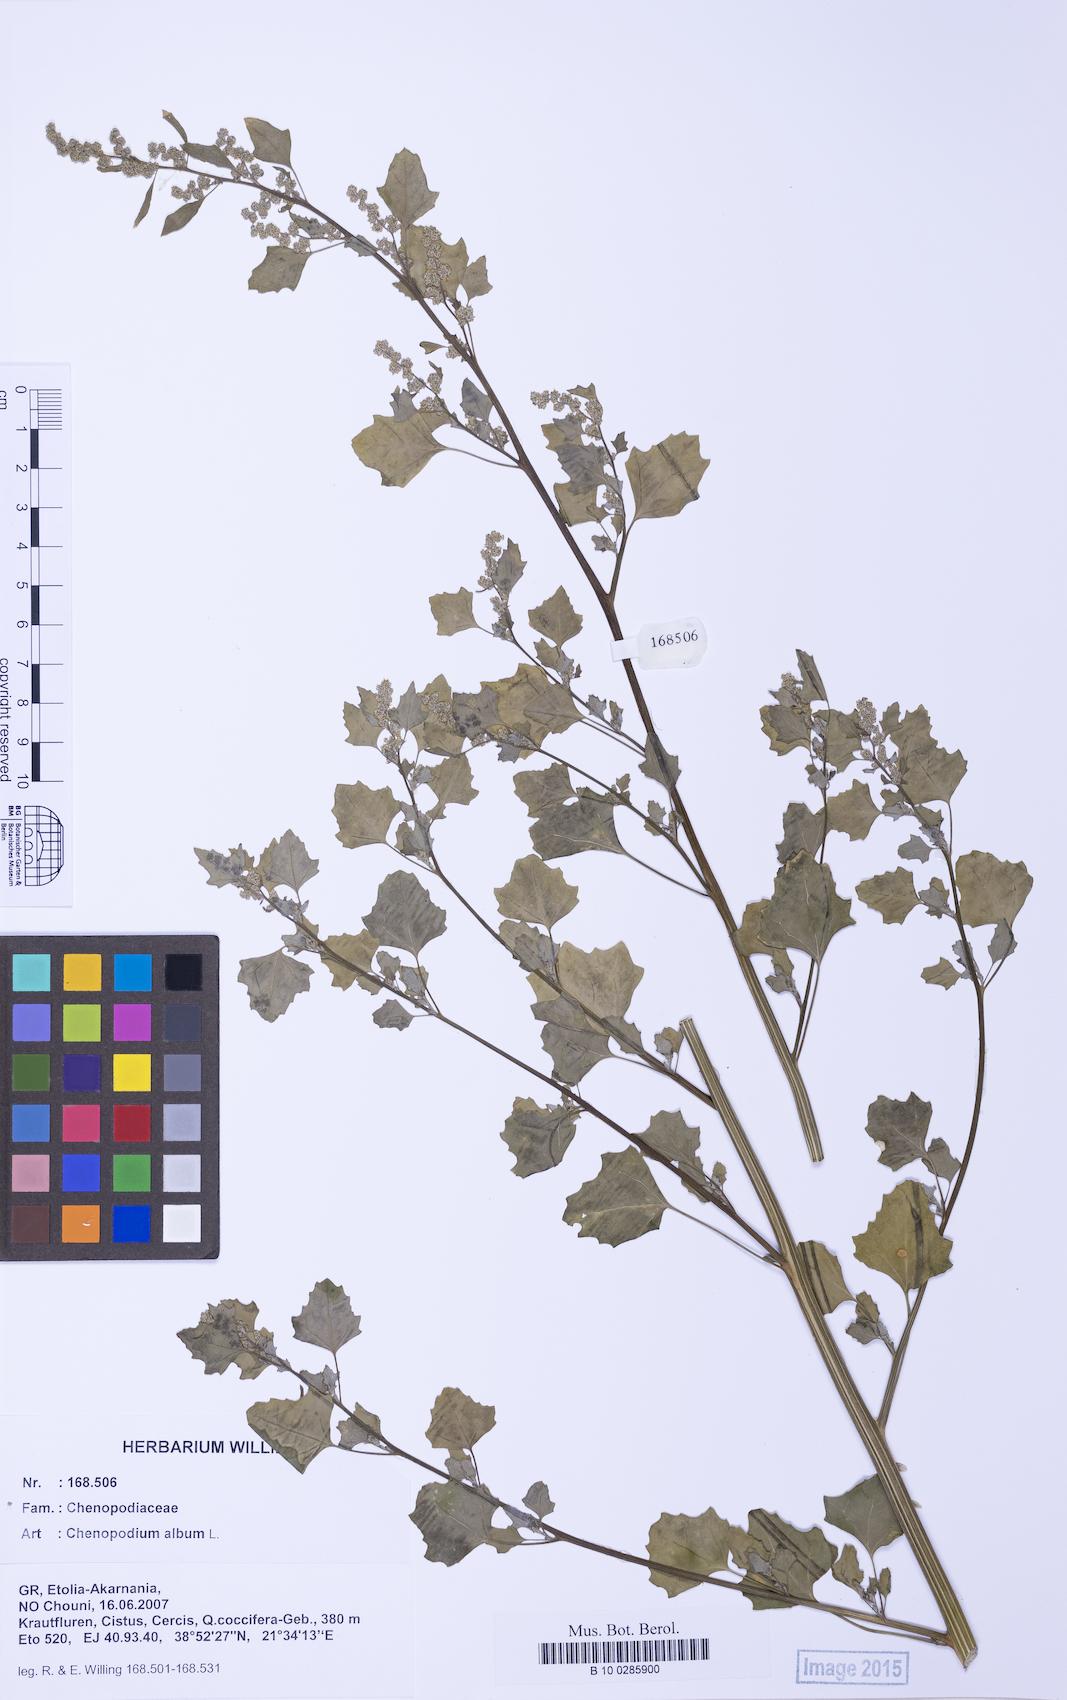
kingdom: Plantae
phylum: Tracheophyta
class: Magnoliopsida
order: Caryophyllales
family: Amaranthaceae
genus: Chenopodium
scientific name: Chenopodium album
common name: Fat-hen
